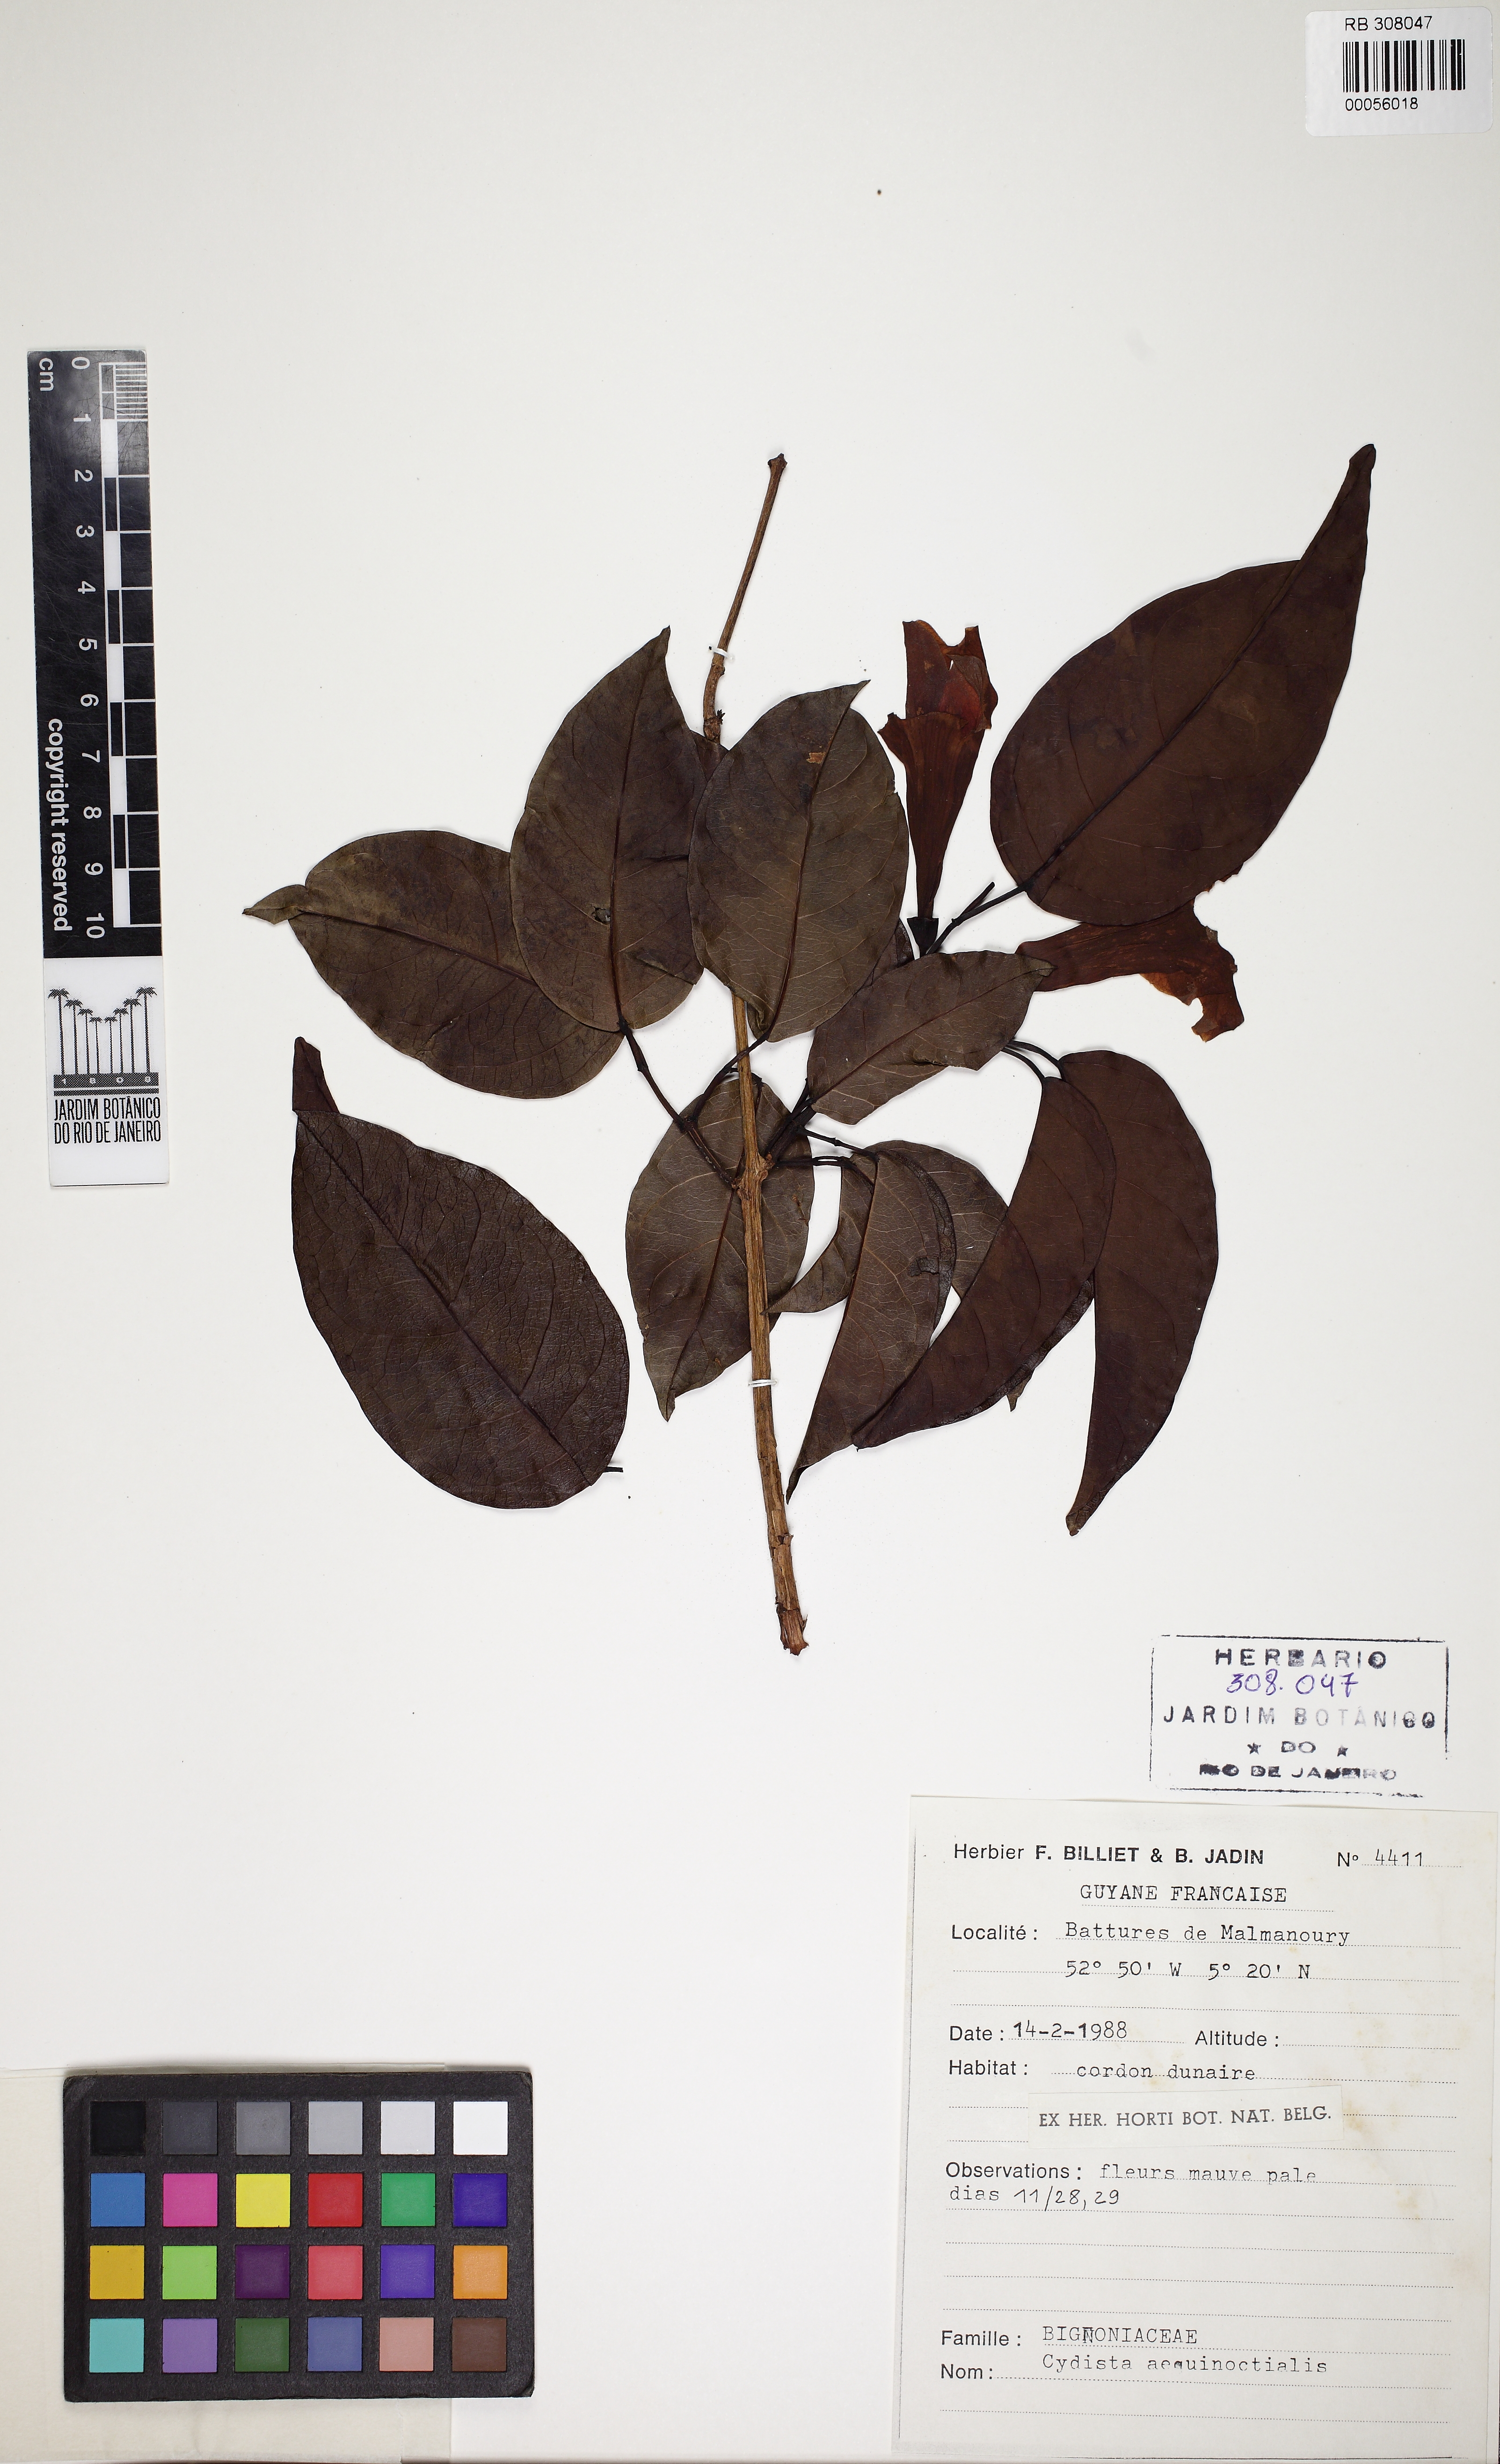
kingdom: Plantae
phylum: Tracheophyta
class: Magnoliopsida
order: Lamiales
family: Bignoniaceae
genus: Bignonia
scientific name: Bignonia aequinoctialis
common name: Garlicvine
